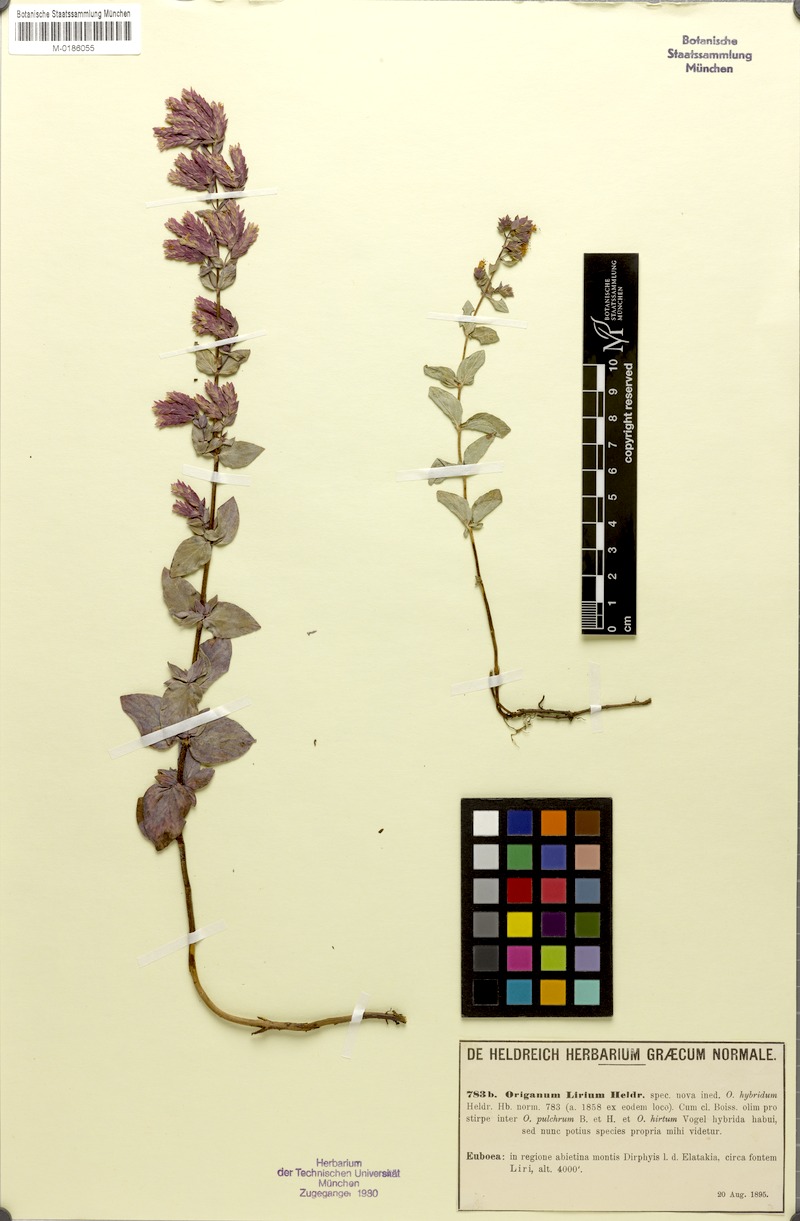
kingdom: Plantae
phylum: Tracheophyta
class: Magnoliopsida
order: Lamiales
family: Lamiaceae
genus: Origanum
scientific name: Origanum lirium
